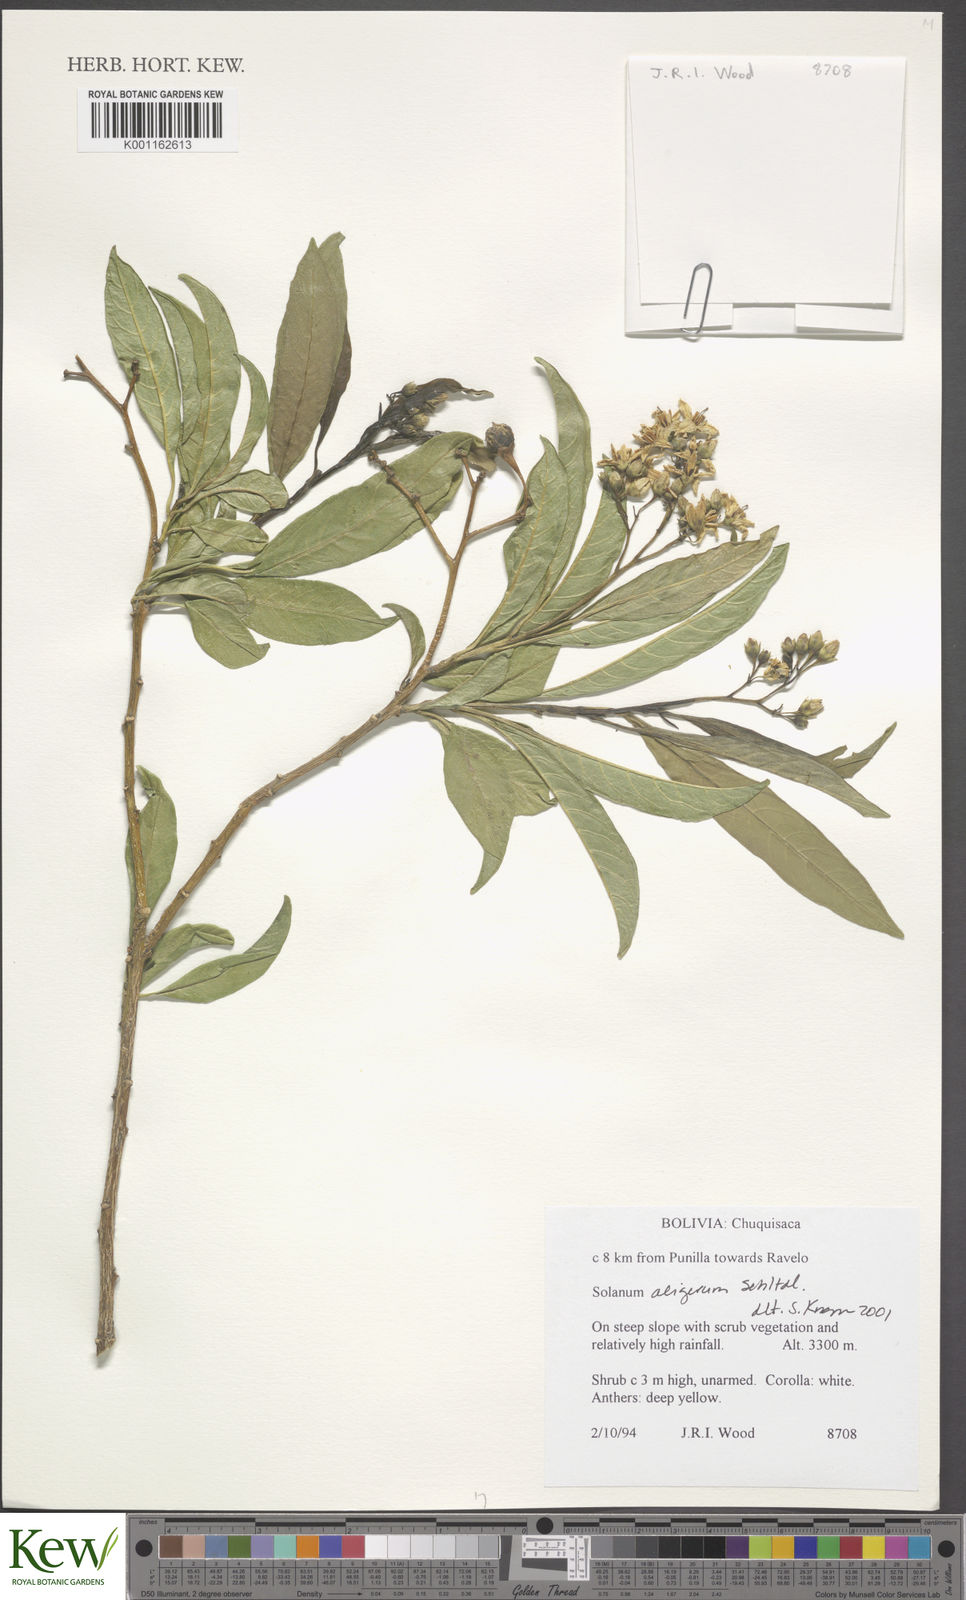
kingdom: Plantae
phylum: Tracheophyta
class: Magnoliopsida
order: Solanales
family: Solanaceae
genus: Solanum
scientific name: Solanum aligerum
